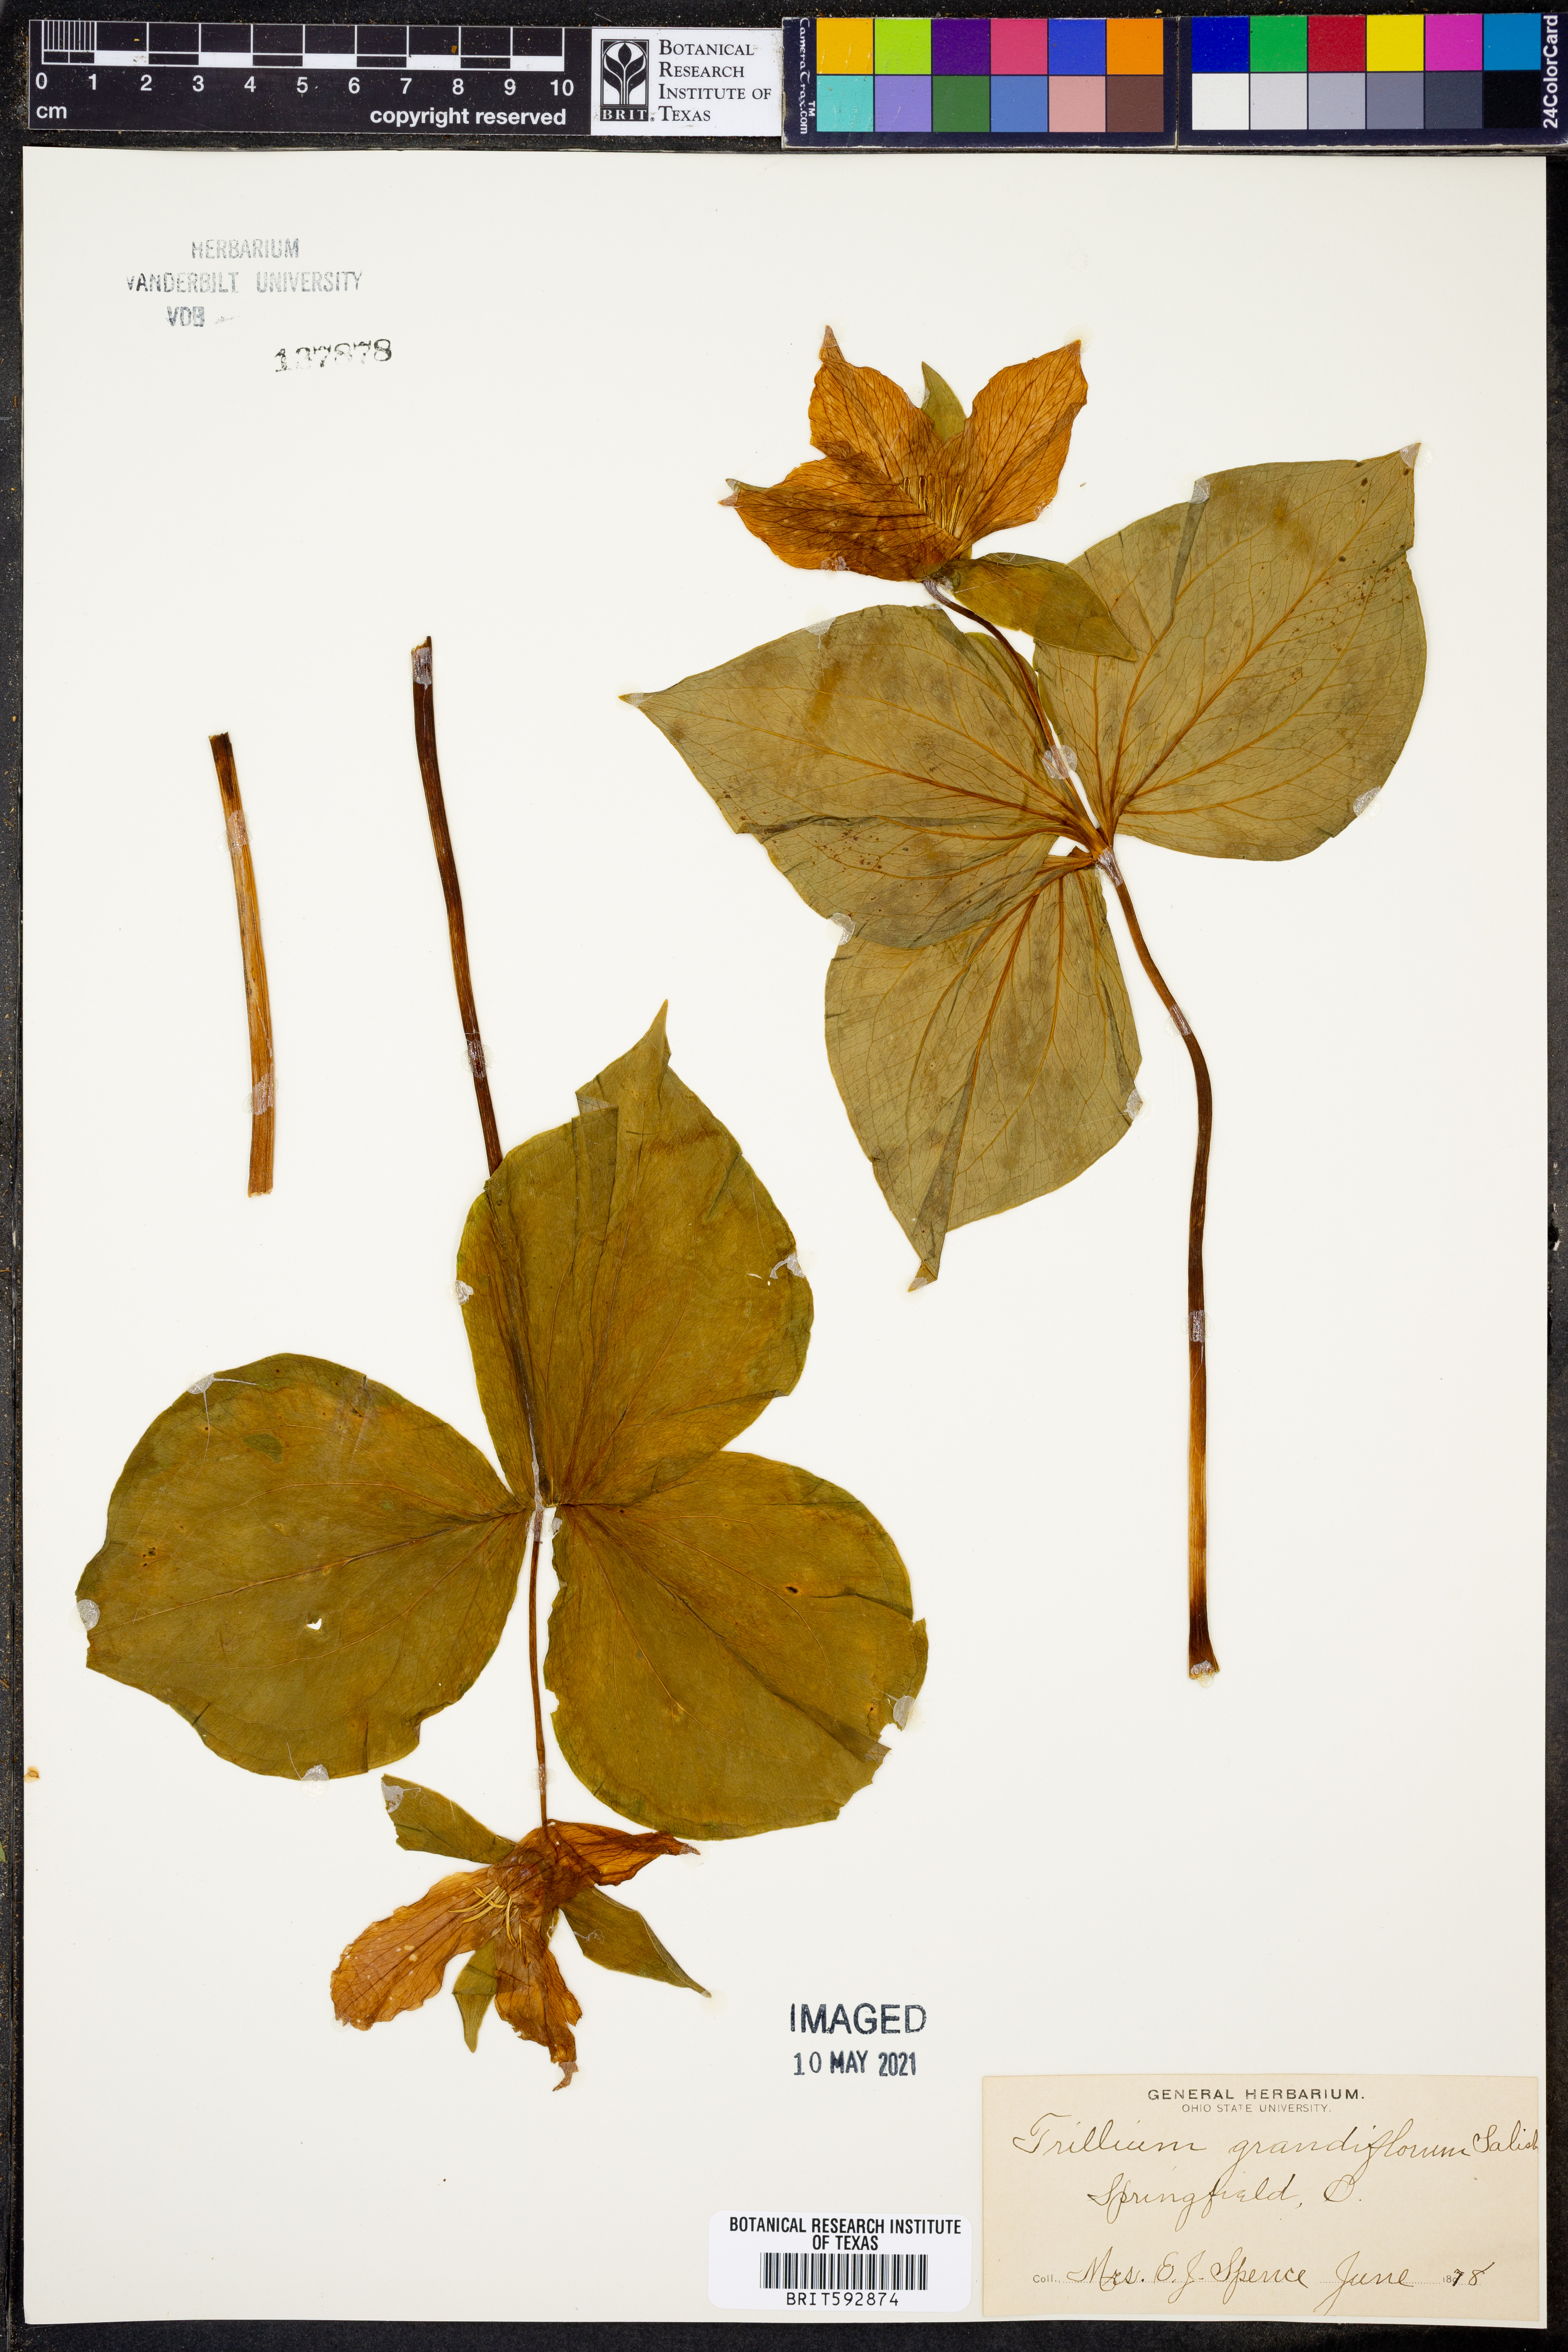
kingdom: Plantae
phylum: Tracheophyta
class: Liliopsida
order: Liliales
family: Melanthiaceae
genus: Trillium
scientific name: Trillium grandiflorum
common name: Great white trillium
